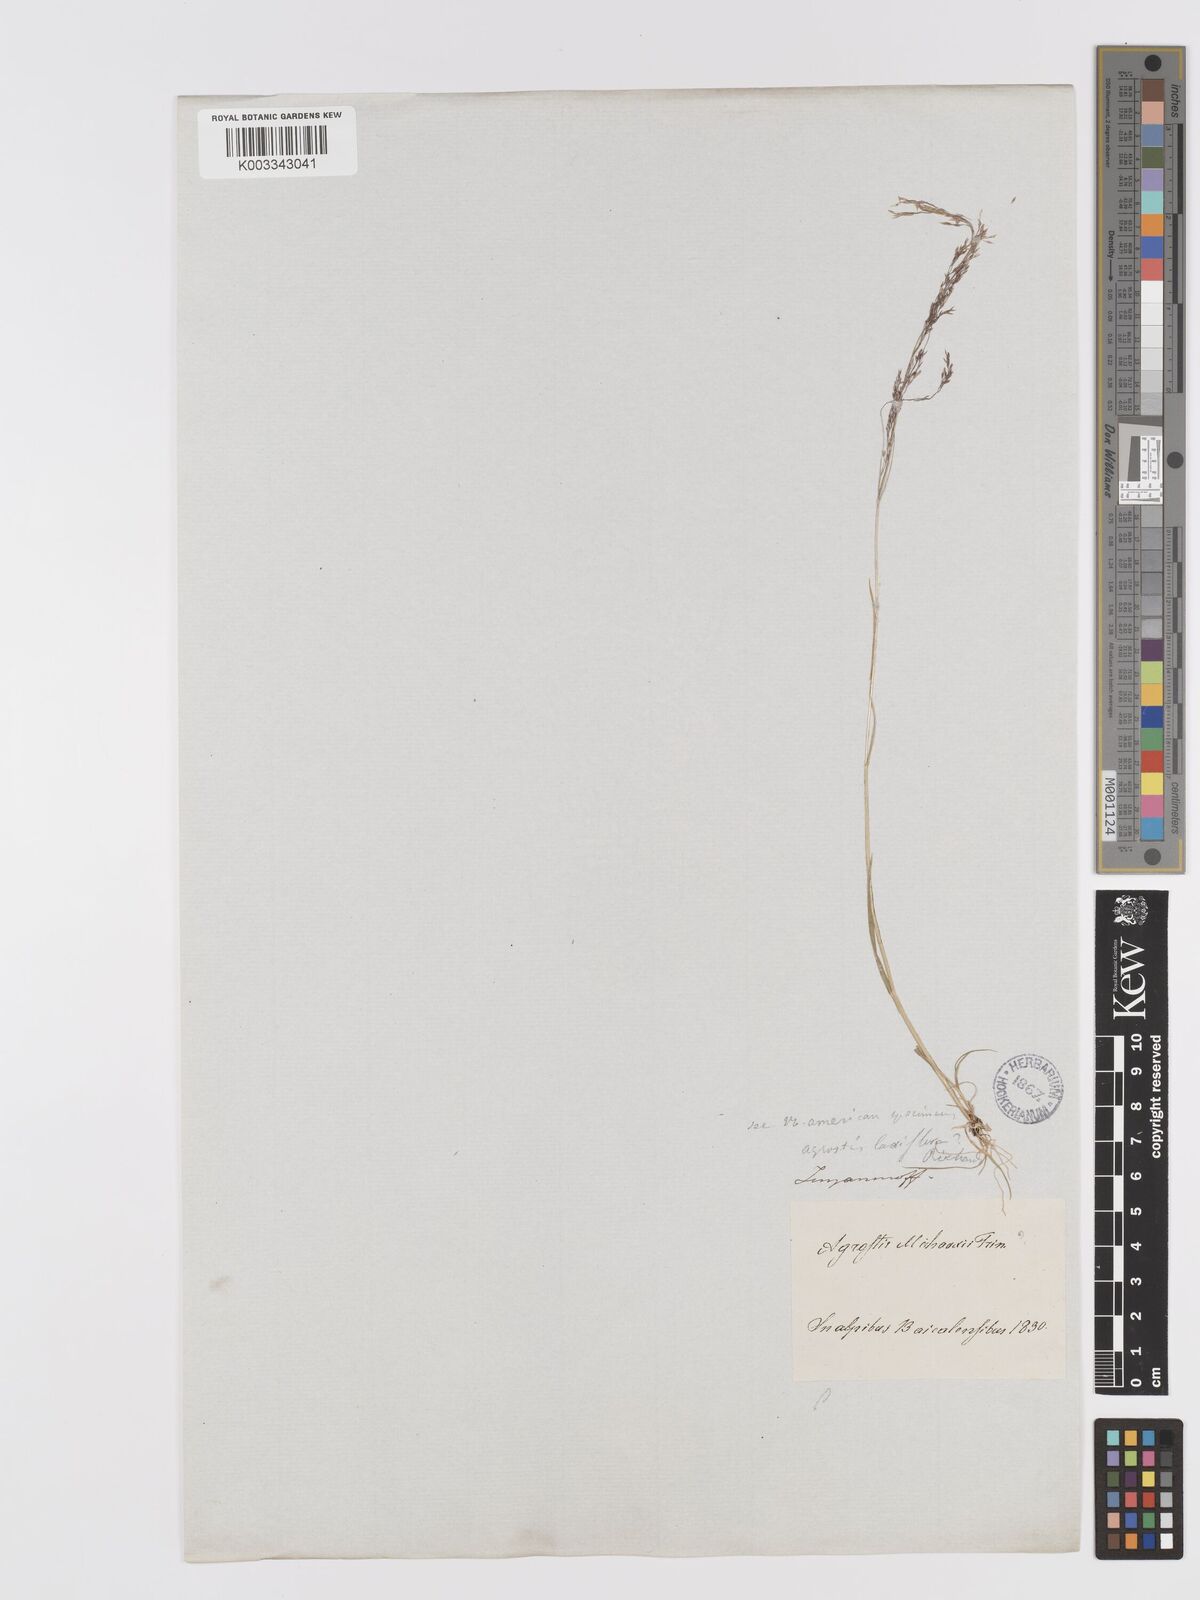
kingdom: Plantae
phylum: Tracheophyta
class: Liliopsida
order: Poales
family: Poaceae
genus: Agrostis
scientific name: Agrostis clavata
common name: Clavate bent
